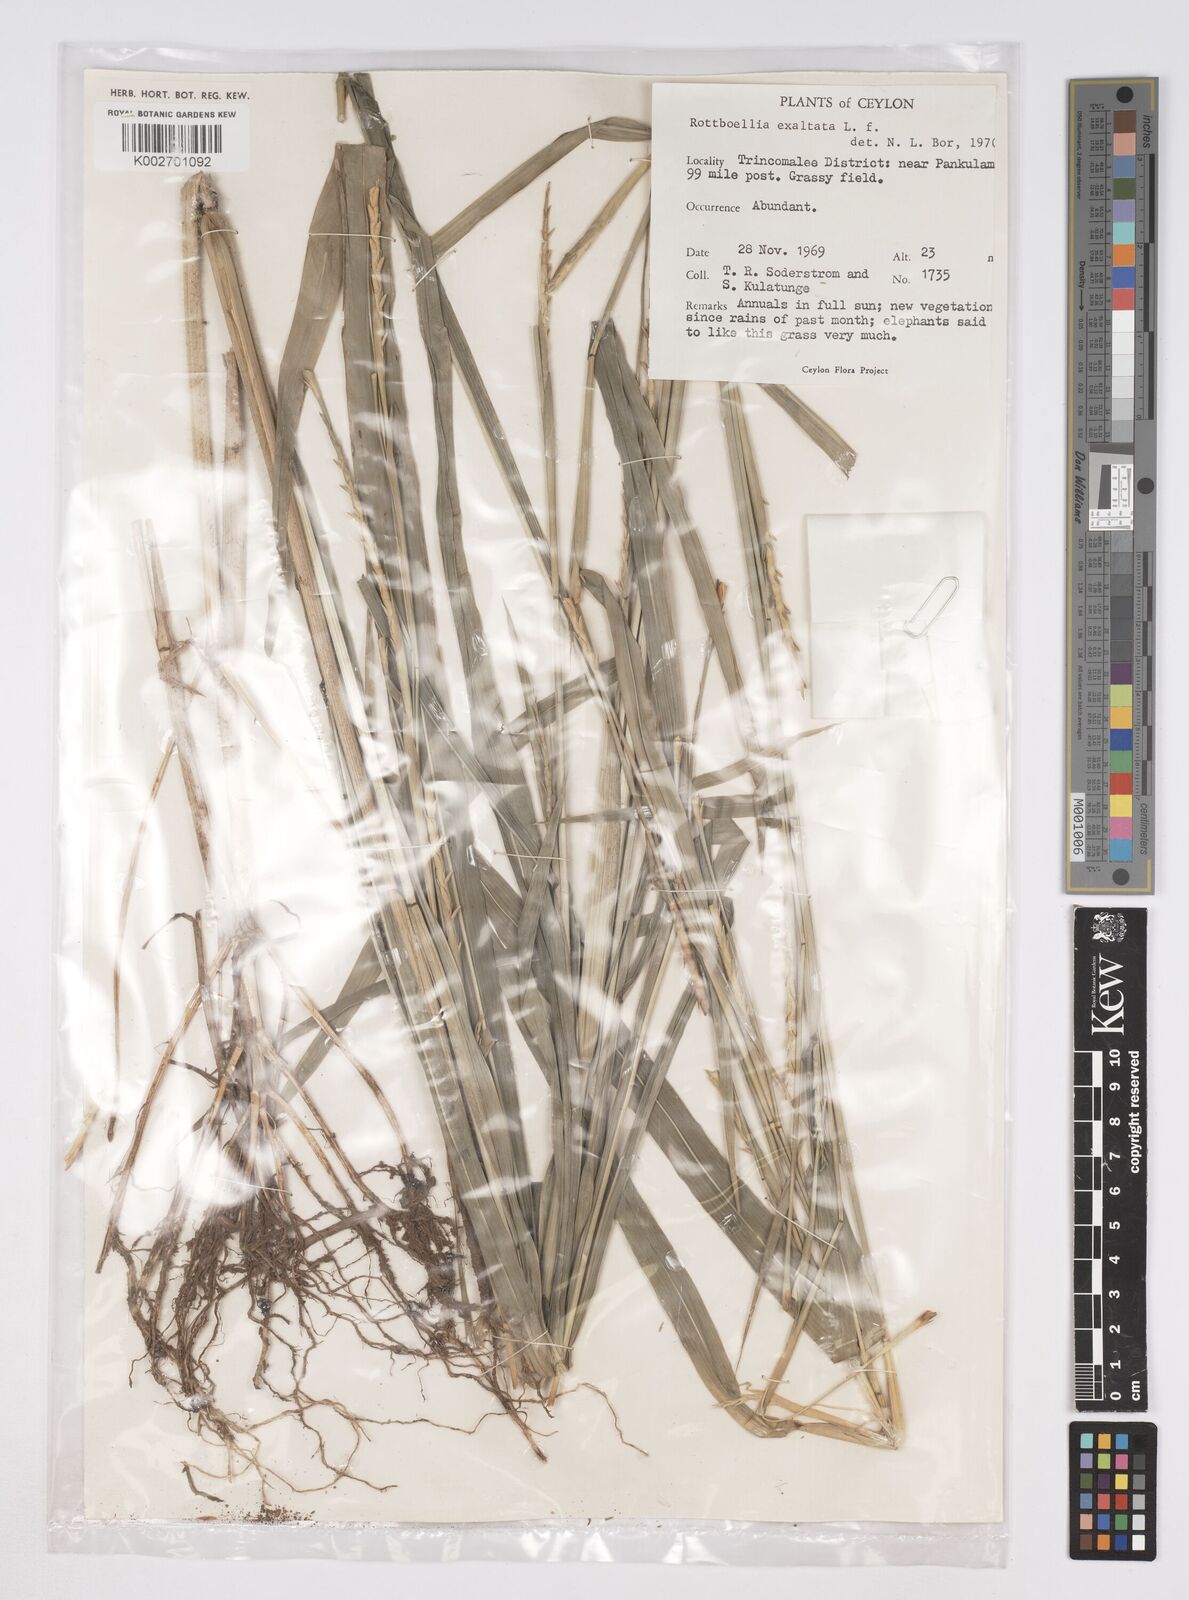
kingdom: Plantae
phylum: Tracheophyta
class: Liliopsida
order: Poales
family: Poaceae
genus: Ophiuros
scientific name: Ophiuros exaltatus
